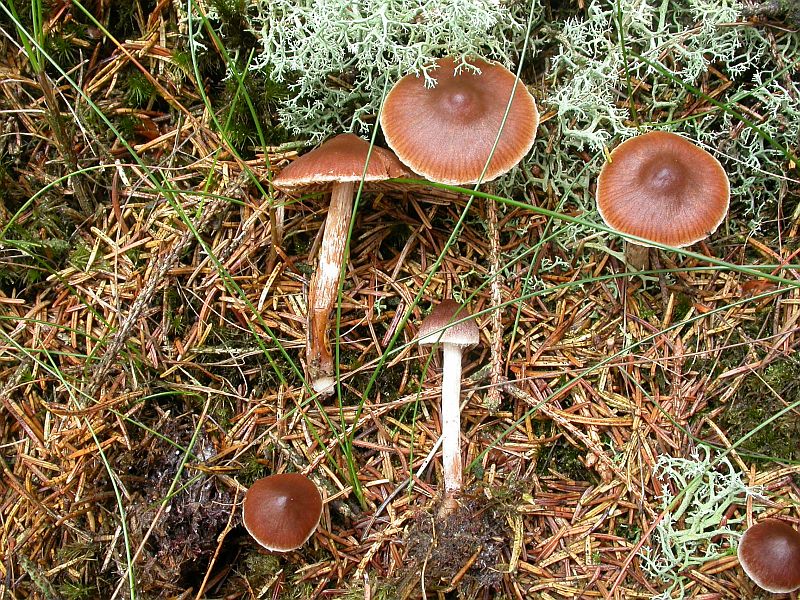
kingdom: Fungi
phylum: Basidiomycota
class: Agaricomycetes
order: Agaricales
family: Cortinariaceae
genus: Cortinarius
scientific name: Cortinarius
